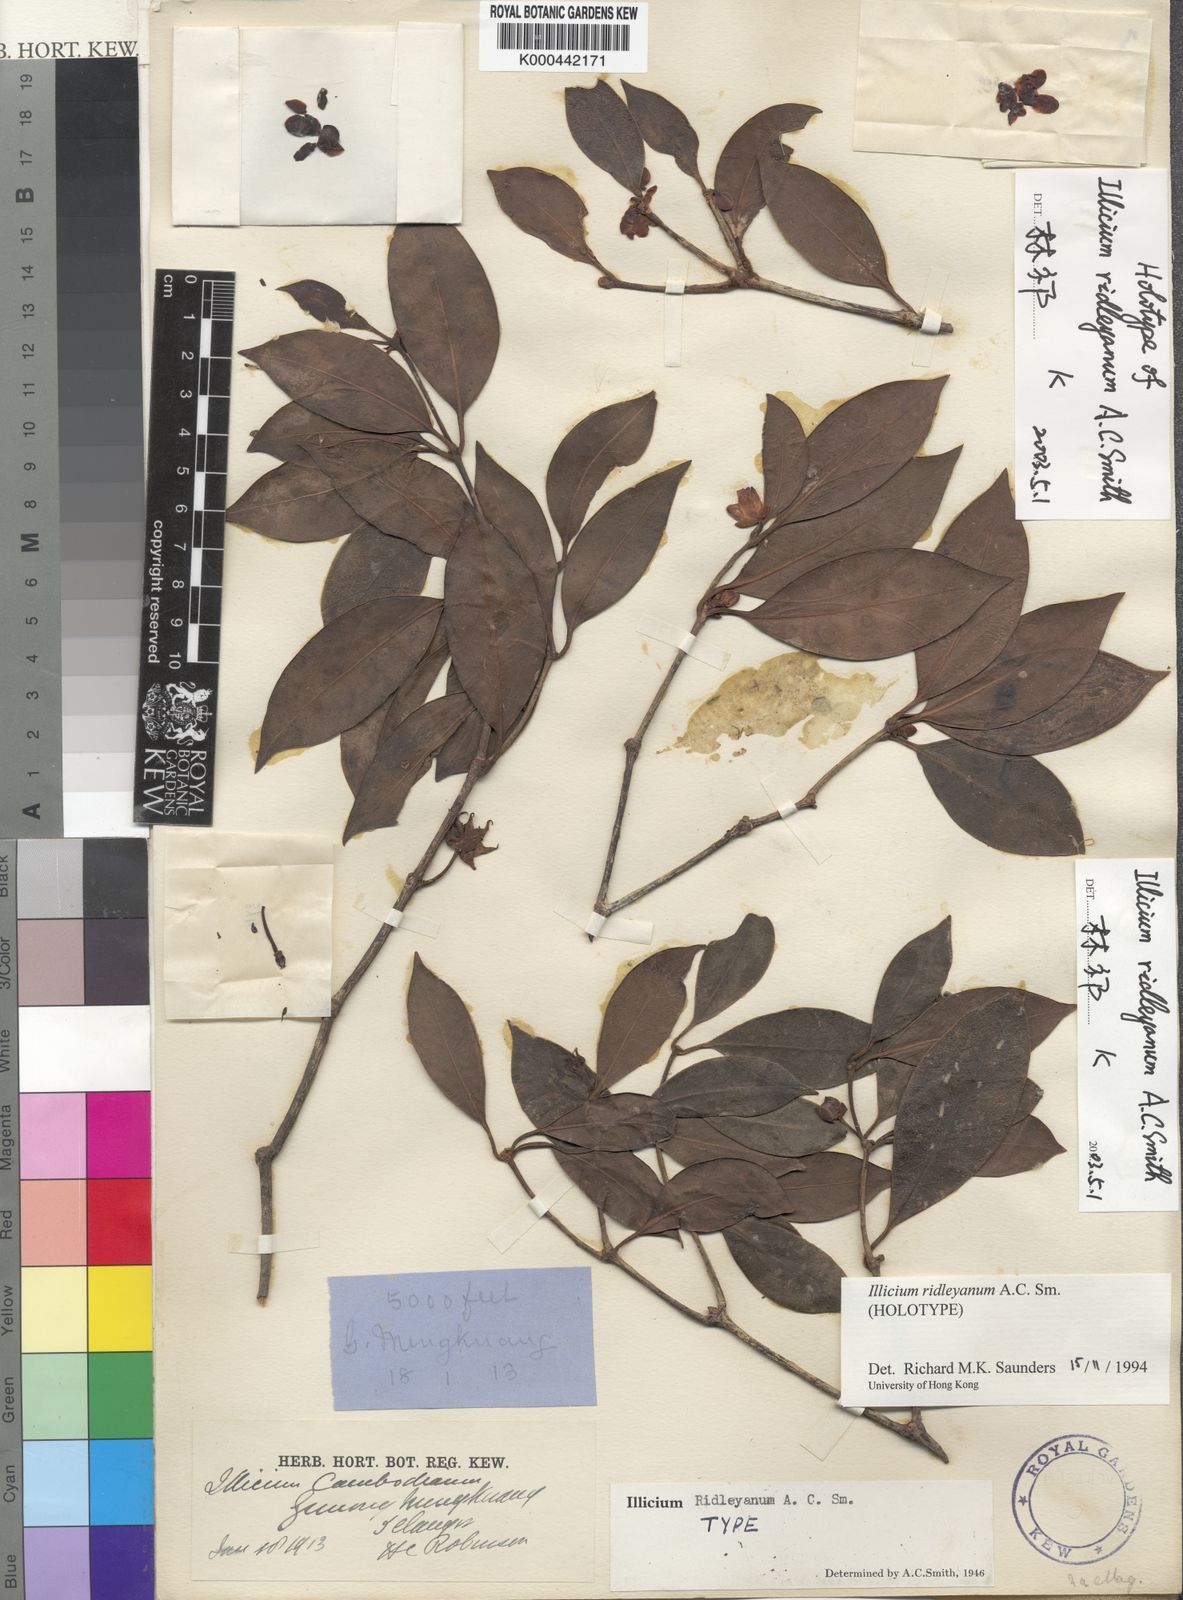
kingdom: Plantae
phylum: Tracheophyta
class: Magnoliopsida
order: Austrobaileyales
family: Schisandraceae
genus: Illicium
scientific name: Illicium ridleyanum
